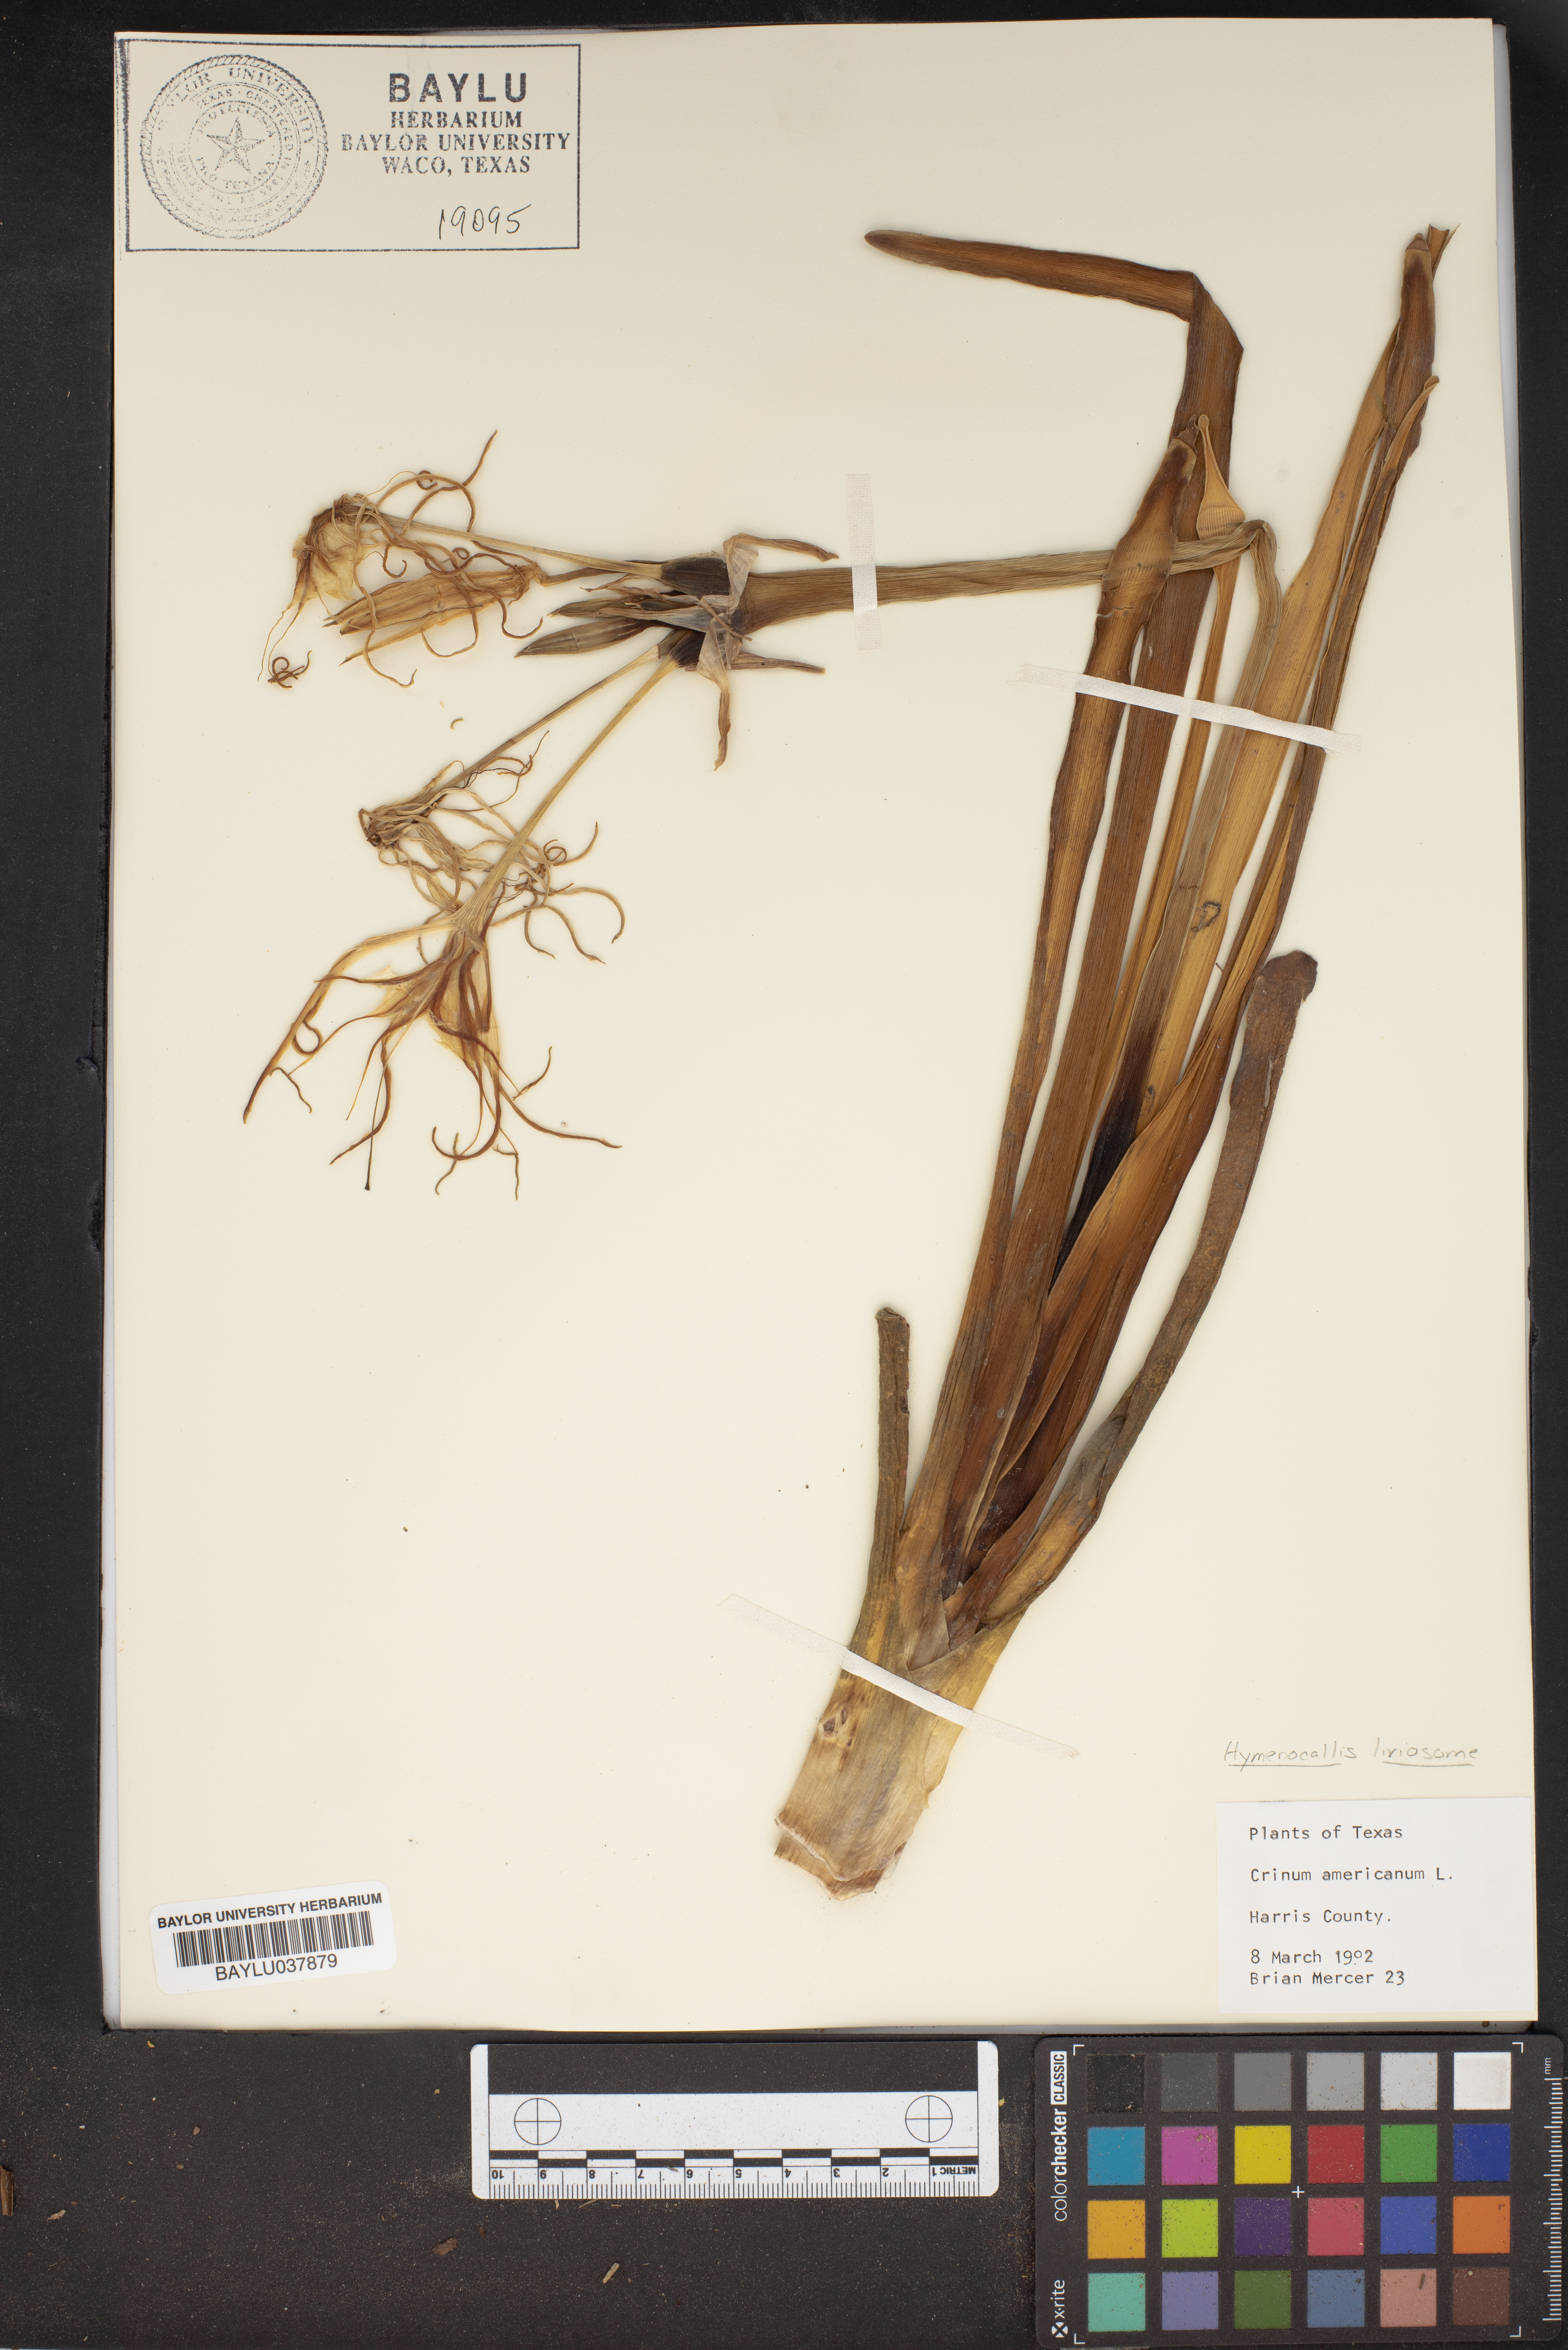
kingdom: Plantae
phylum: Tracheophyta
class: Liliopsida
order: Asparagales
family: Amaryllidaceae
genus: Hymenocallis
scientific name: Hymenocallis liriosme
